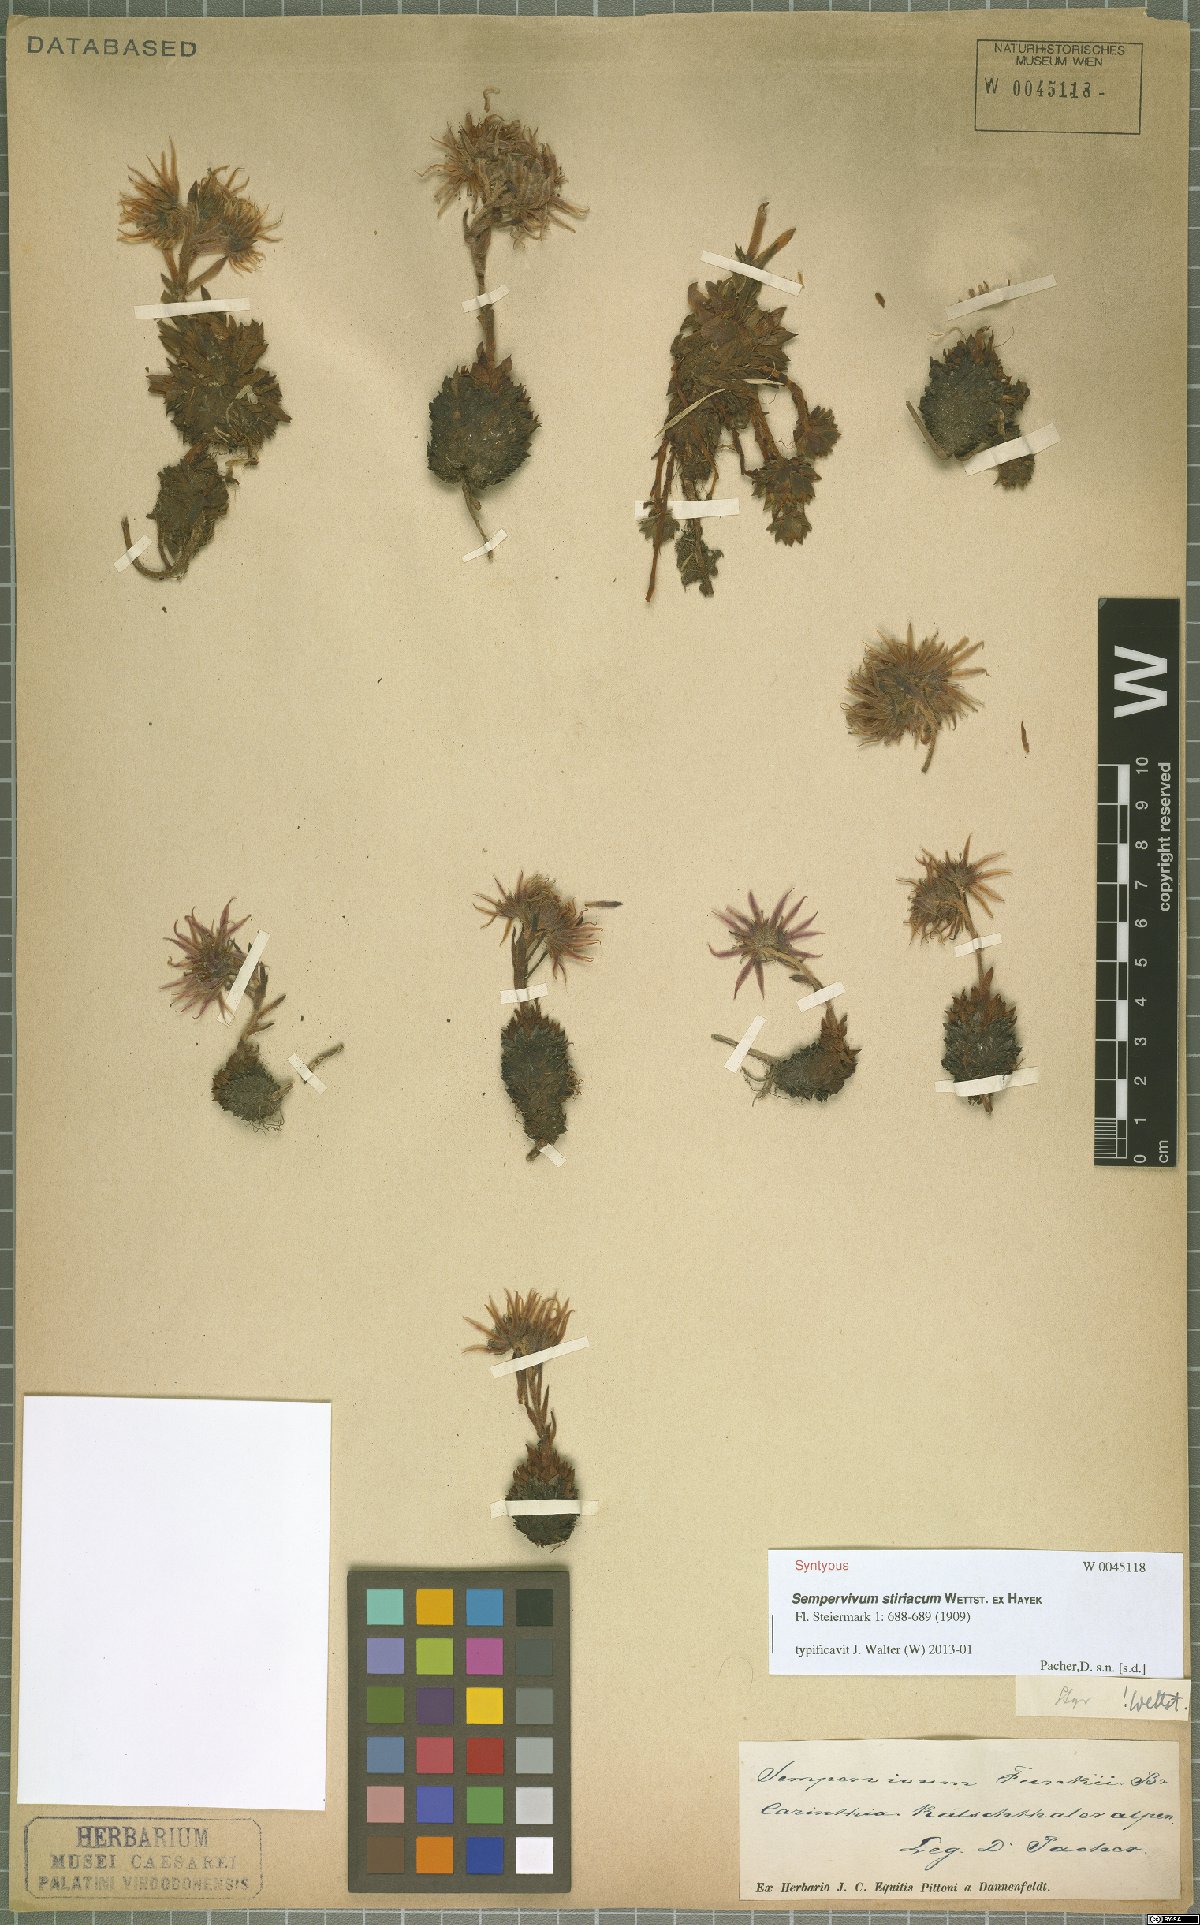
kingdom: Plantae
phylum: Tracheophyta
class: Magnoliopsida
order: Saxifragales
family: Crassulaceae
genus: Sempervivum
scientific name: Sempervivum montanum
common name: Mountain house-leek
